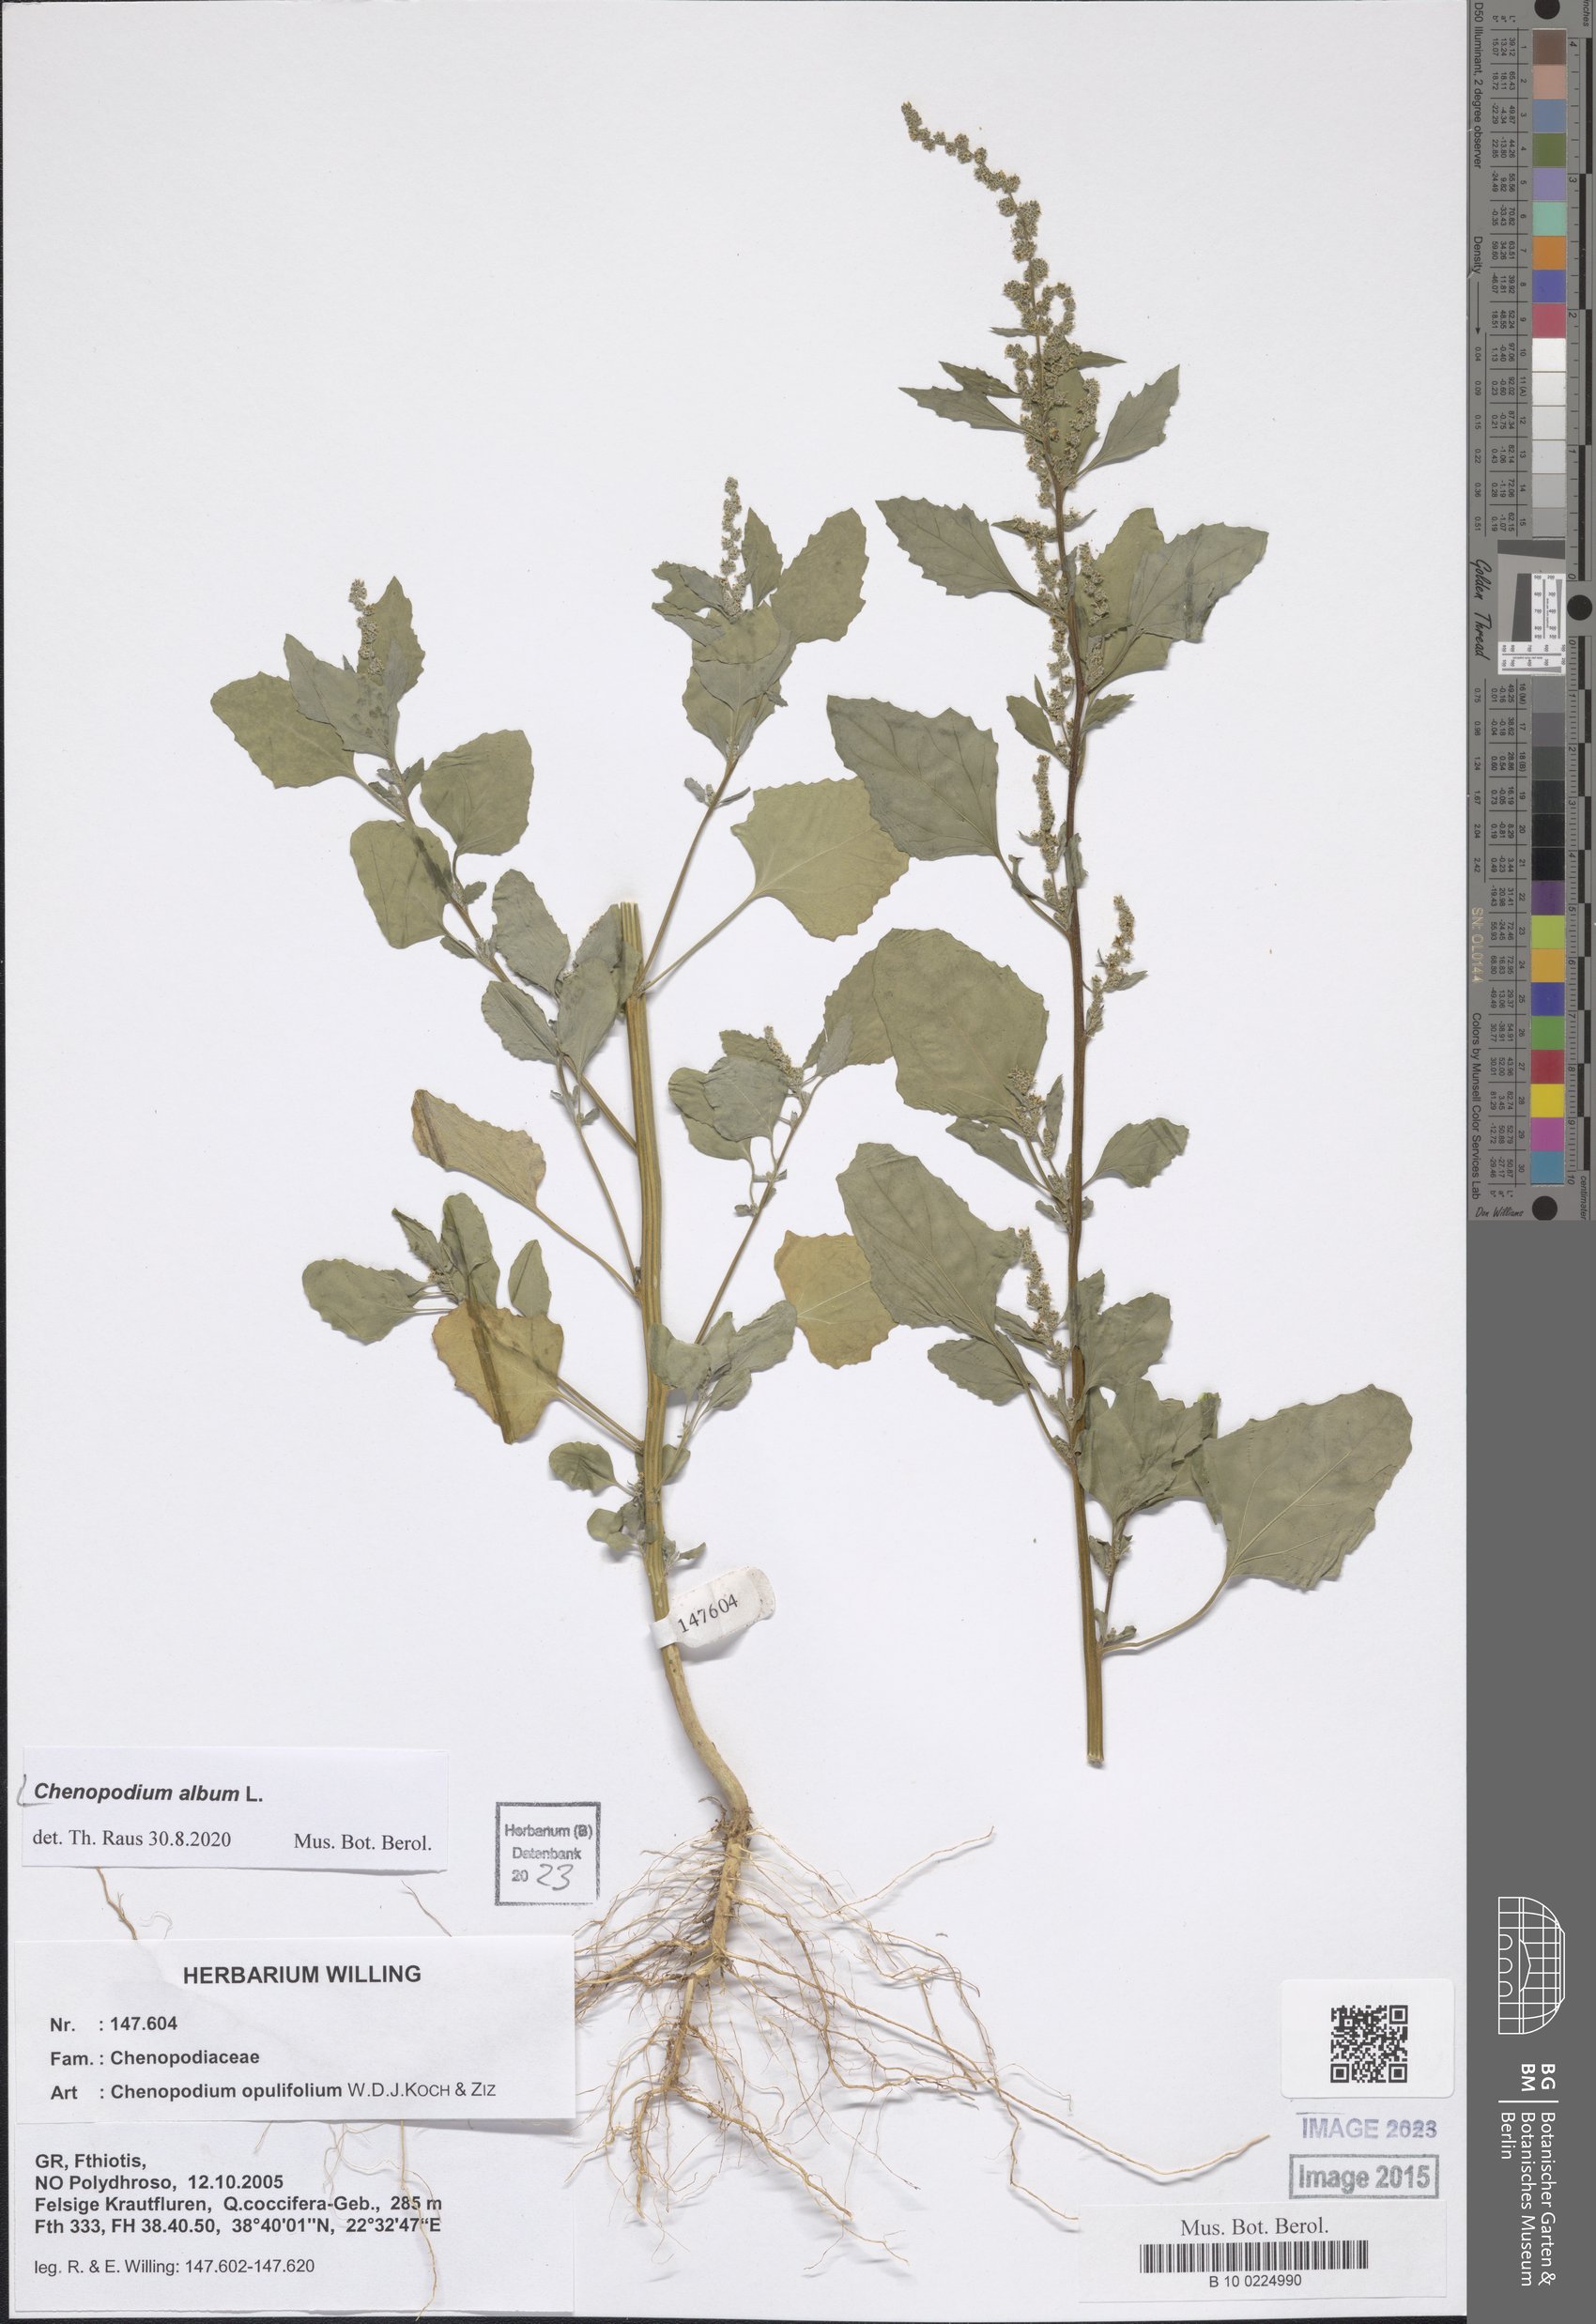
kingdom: Plantae
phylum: Tracheophyta
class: Magnoliopsida
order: Caryophyllales
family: Amaranthaceae
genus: Chenopodium
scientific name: Chenopodium album
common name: Fat-hen
